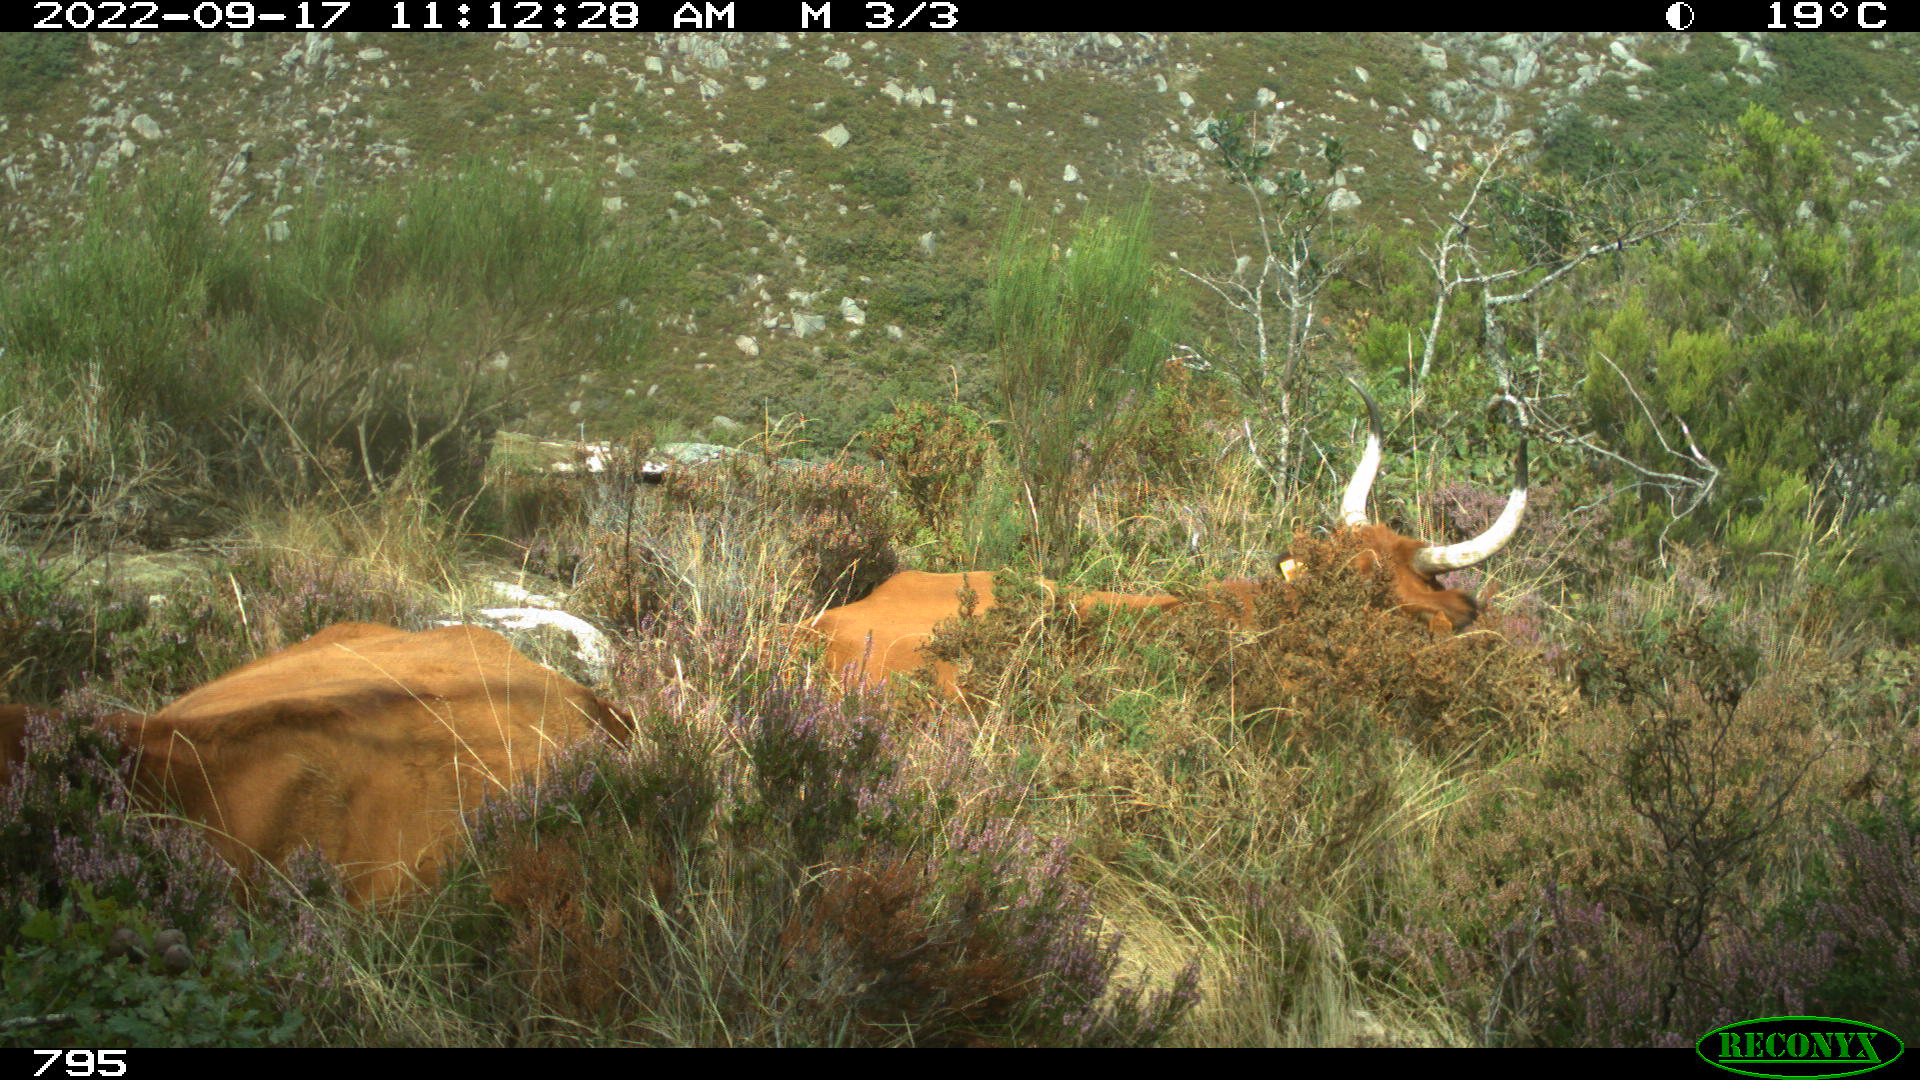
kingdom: Animalia
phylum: Chordata
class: Mammalia
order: Artiodactyla
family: Bovidae
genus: Bos
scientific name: Bos taurus
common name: Domesticated cattle
